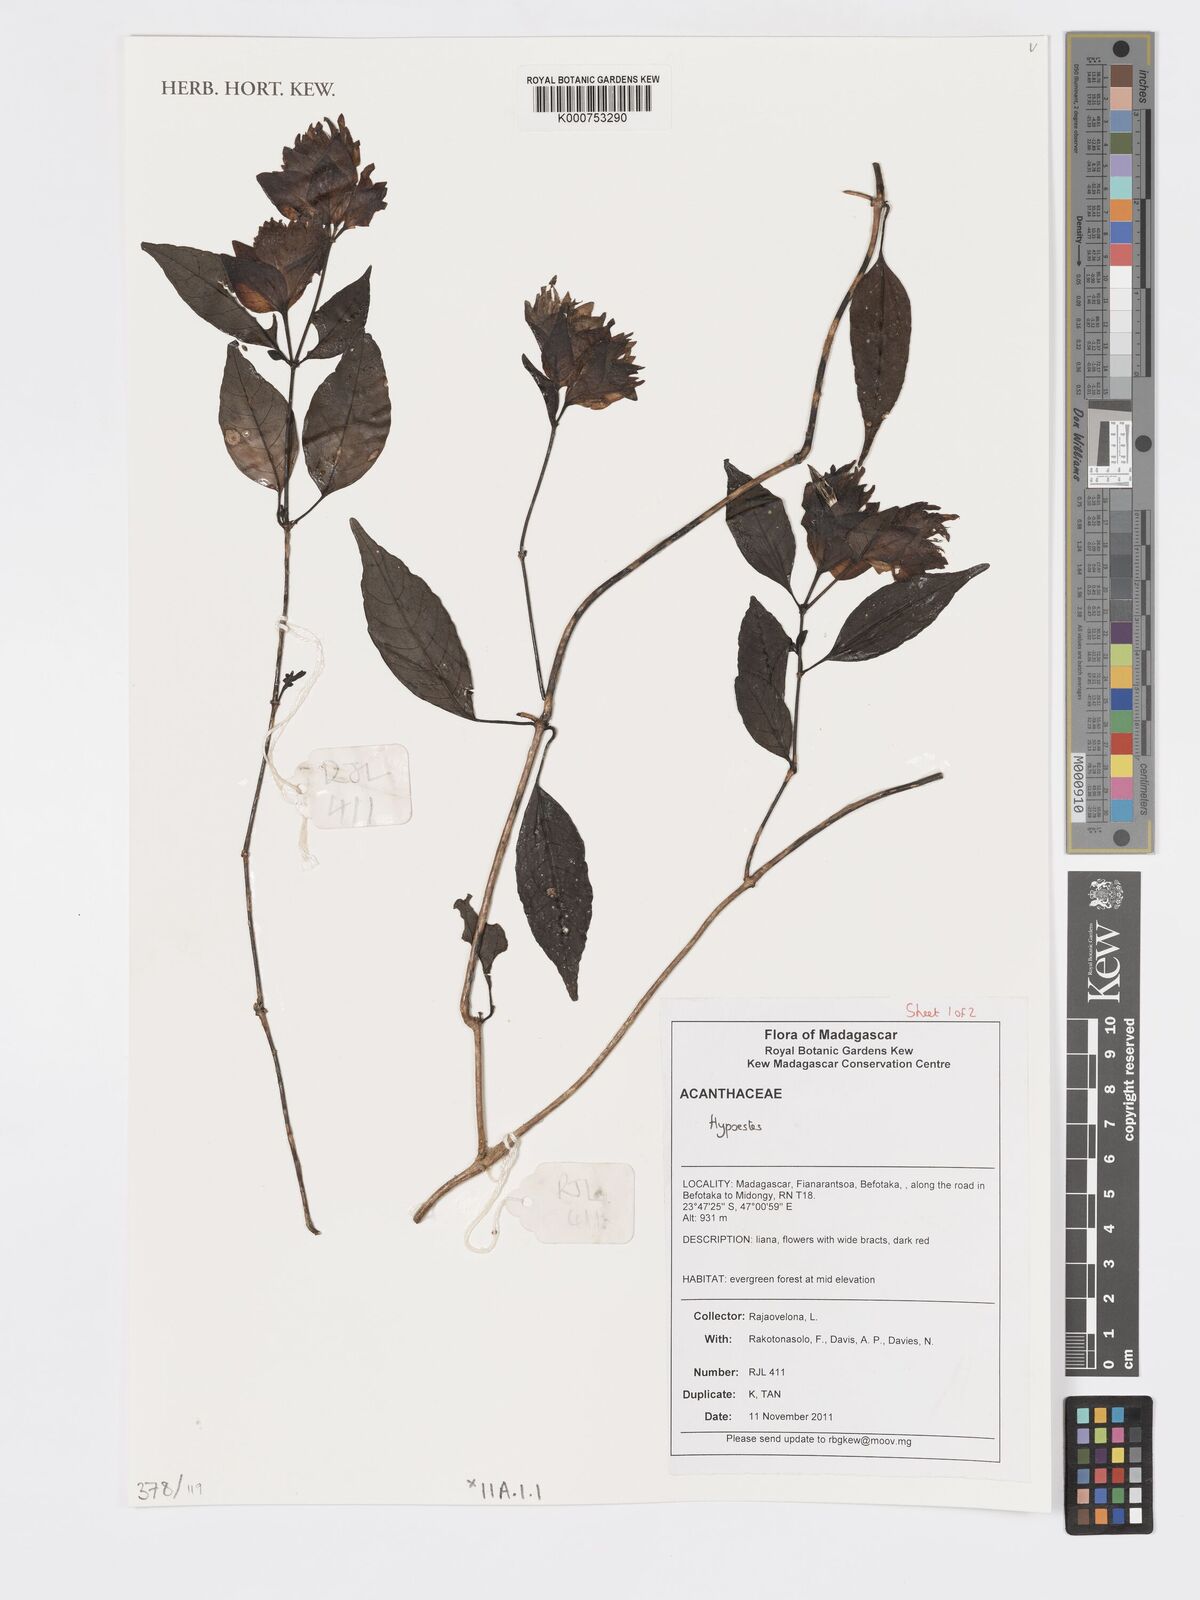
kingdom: Plantae
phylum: Tracheophyta
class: Magnoliopsida
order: Lamiales
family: Acanthaceae
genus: Hypoestes
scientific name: Hypoestes
